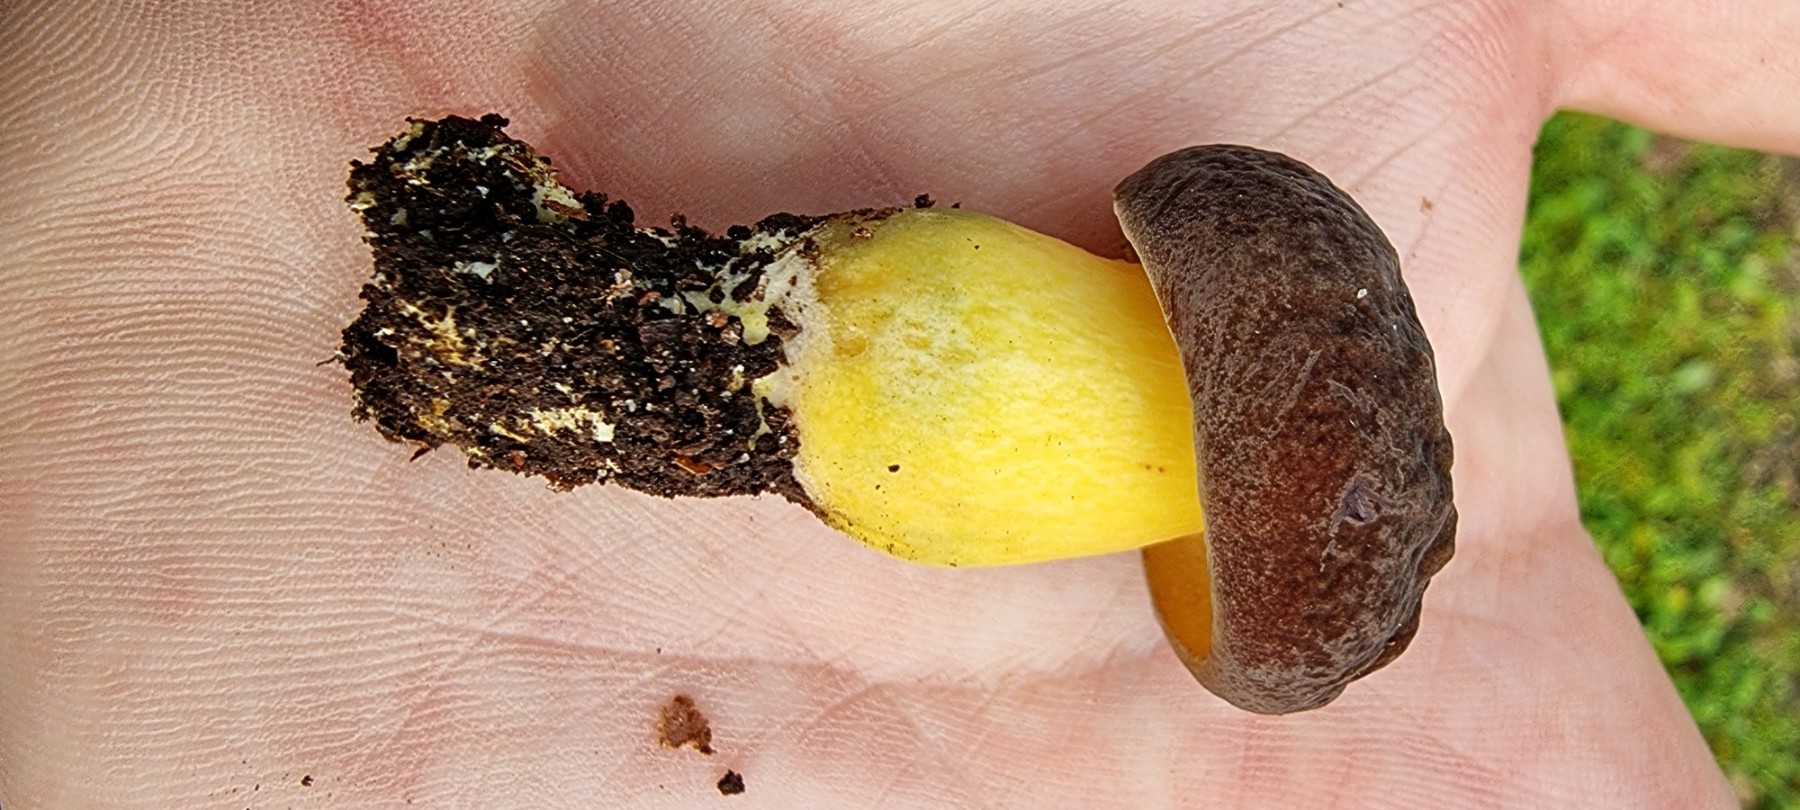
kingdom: Fungi
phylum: Basidiomycota
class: Agaricomycetes
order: Boletales
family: Boletaceae
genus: Xerocomellus
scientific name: Xerocomellus pruinatus
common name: dugget rørhat
